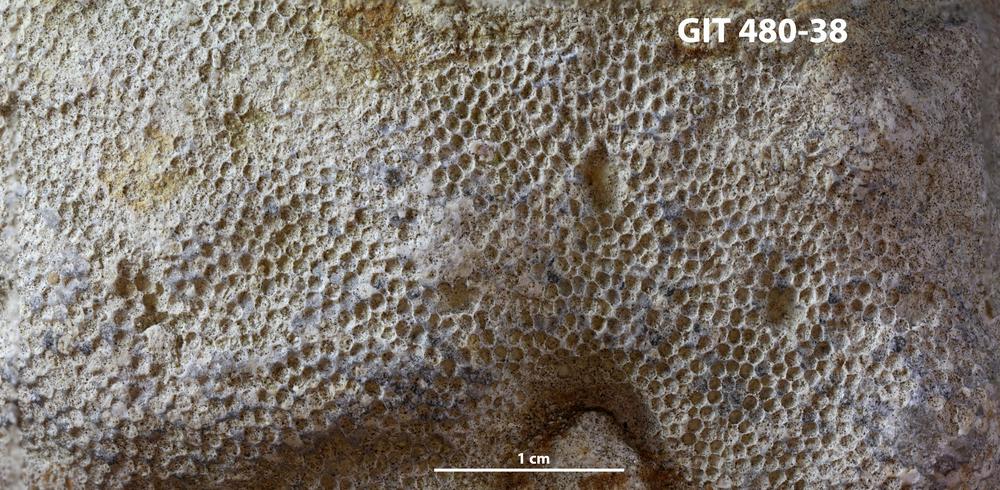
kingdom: Animalia
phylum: Cnidaria
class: Anthozoa
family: Favositidae
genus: Paleofavosites
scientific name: Paleofavosites
